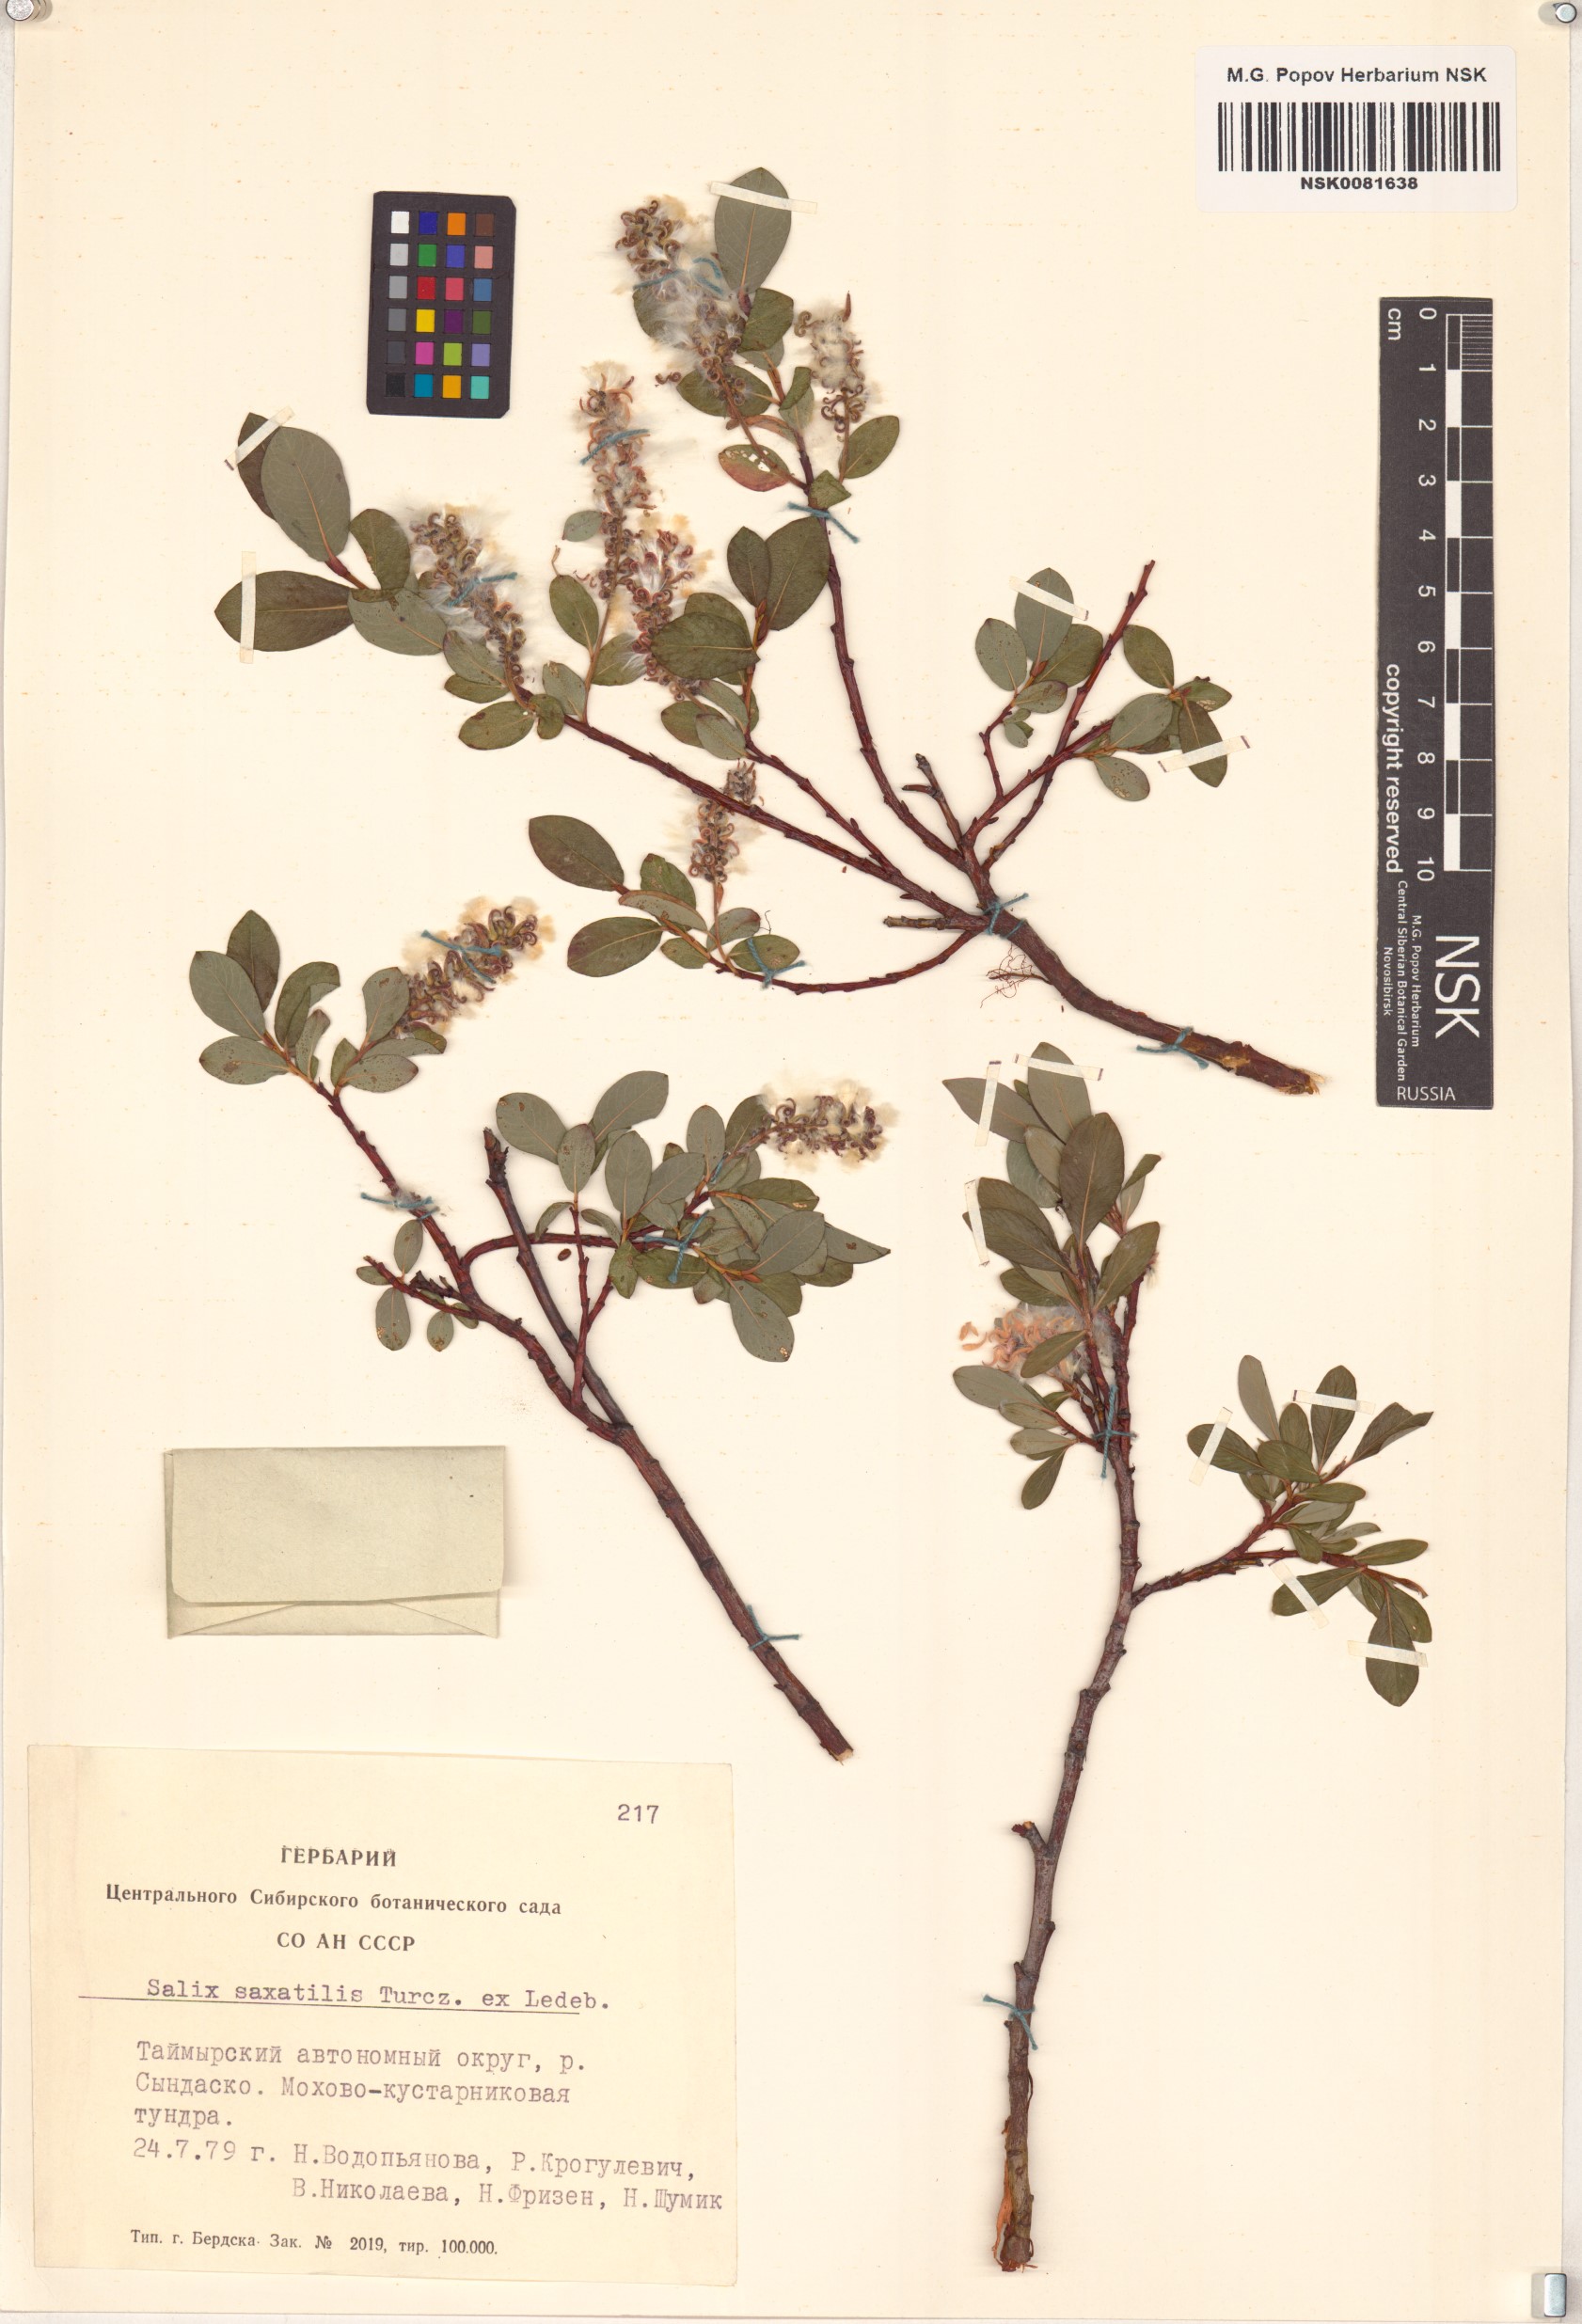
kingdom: Plantae
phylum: Tracheophyta
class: Magnoliopsida
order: Malpighiales
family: Salicaceae
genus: Salix
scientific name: Salix saxatilis
